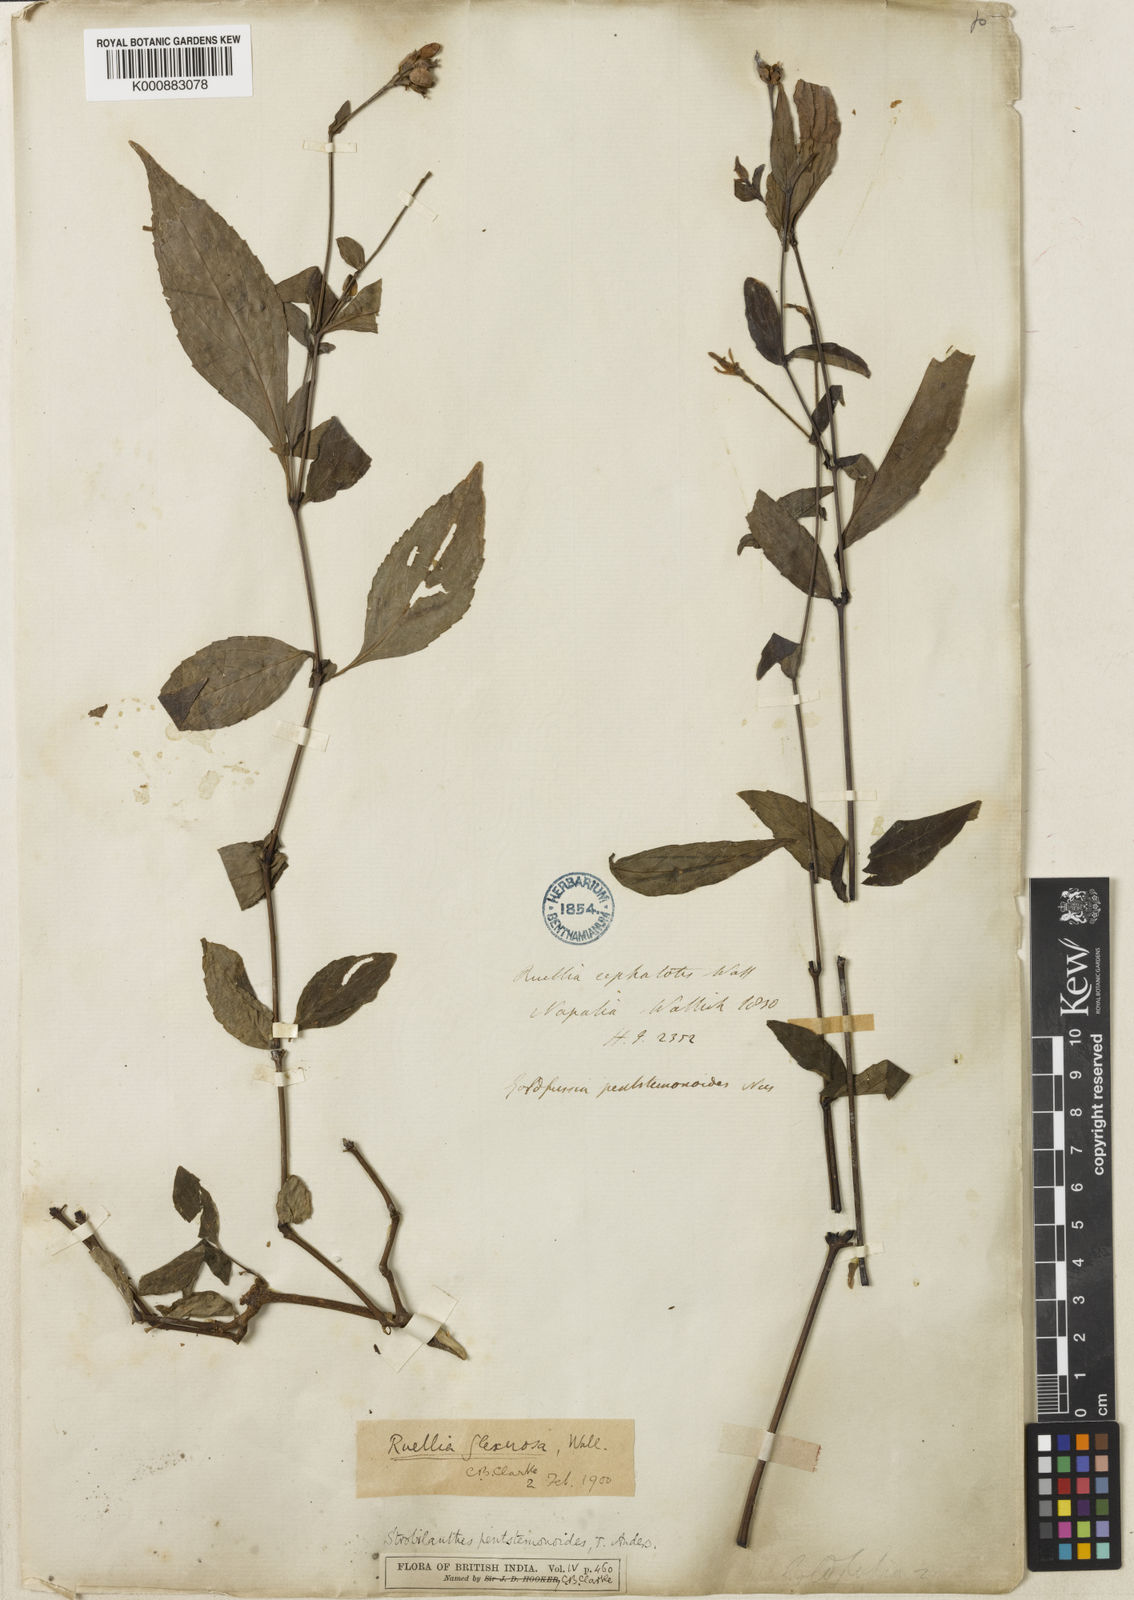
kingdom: Plantae
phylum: Tracheophyta
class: Magnoliopsida
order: Lamiales
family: Acanthaceae
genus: Strobilanthes
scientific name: Strobilanthes
